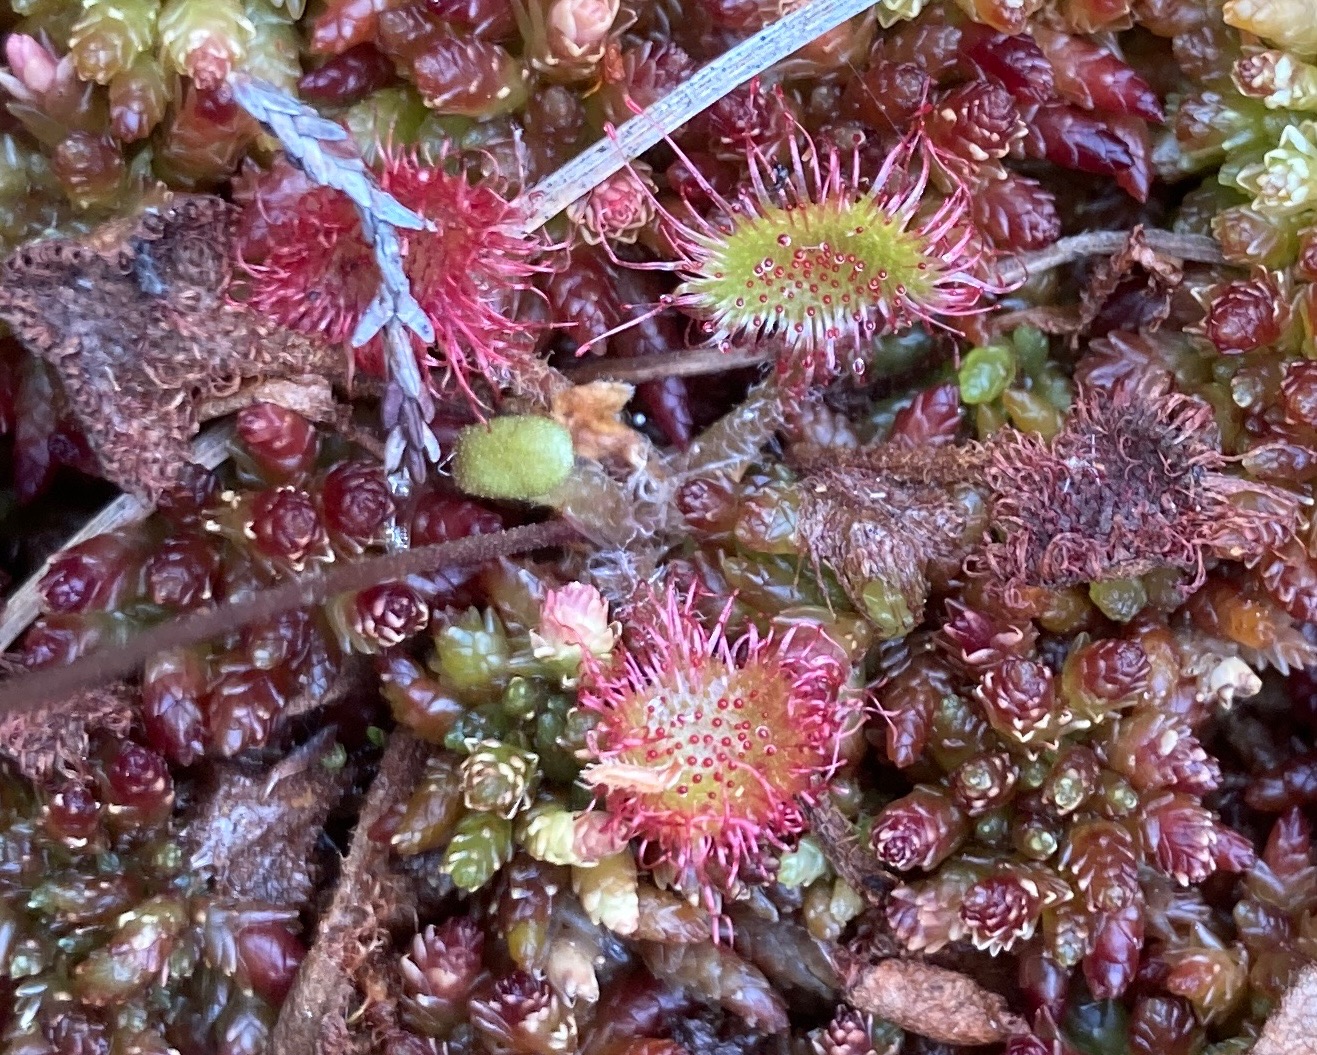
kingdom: Plantae
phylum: Tracheophyta
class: Magnoliopsida
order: Caryophyllales
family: Droseraceae
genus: Drosera
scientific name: Drosera rotundifolia
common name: Rundbladet soldug
